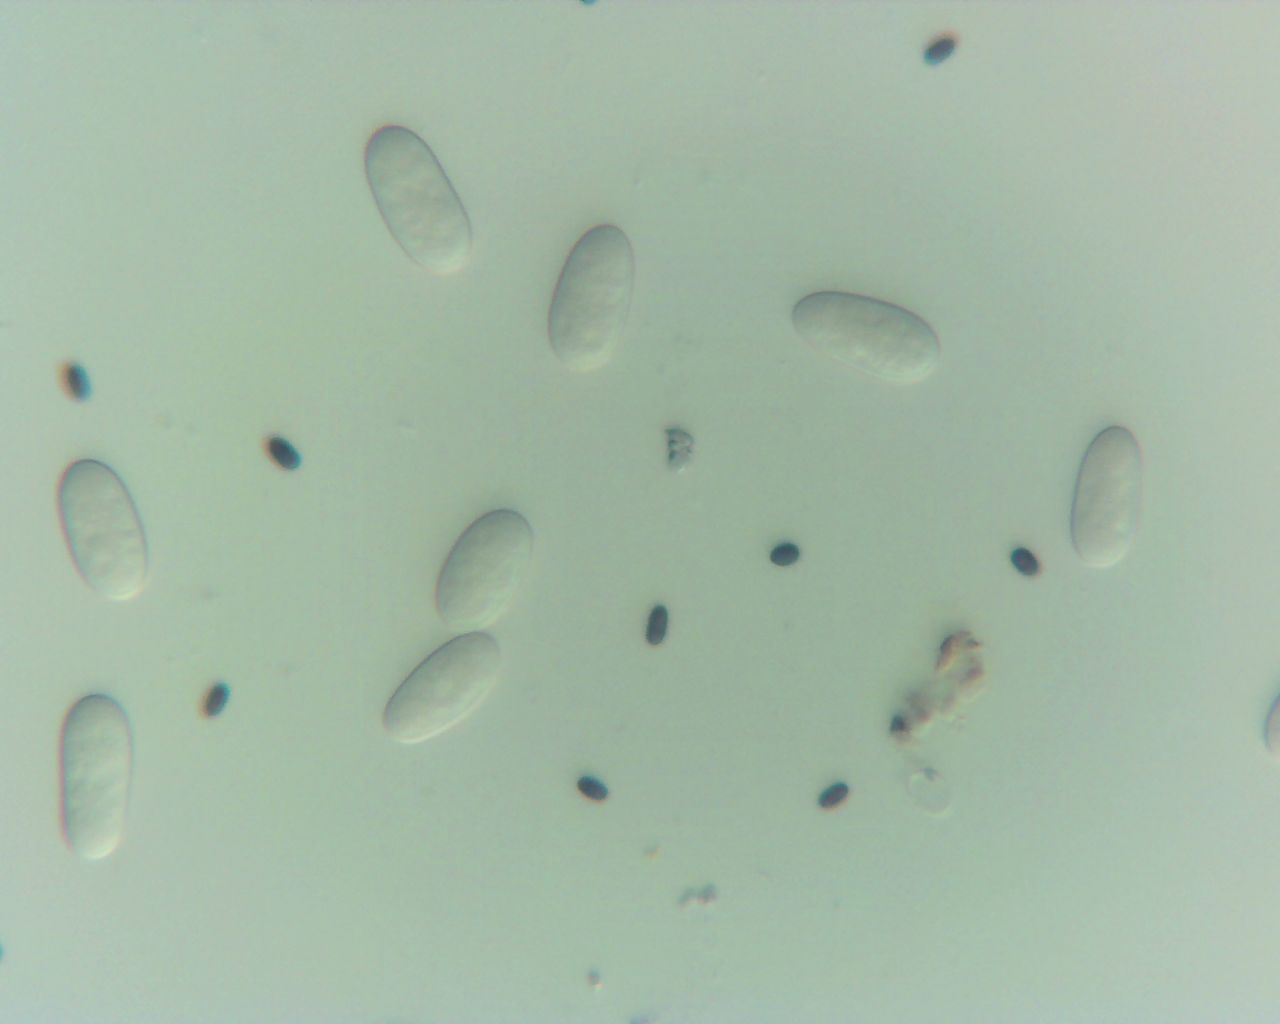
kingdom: Fungi
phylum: Ascomycota
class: Sordariomycetes
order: Diaporthales
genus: Botryodiplodia
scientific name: Botryodiplodia fraxini
